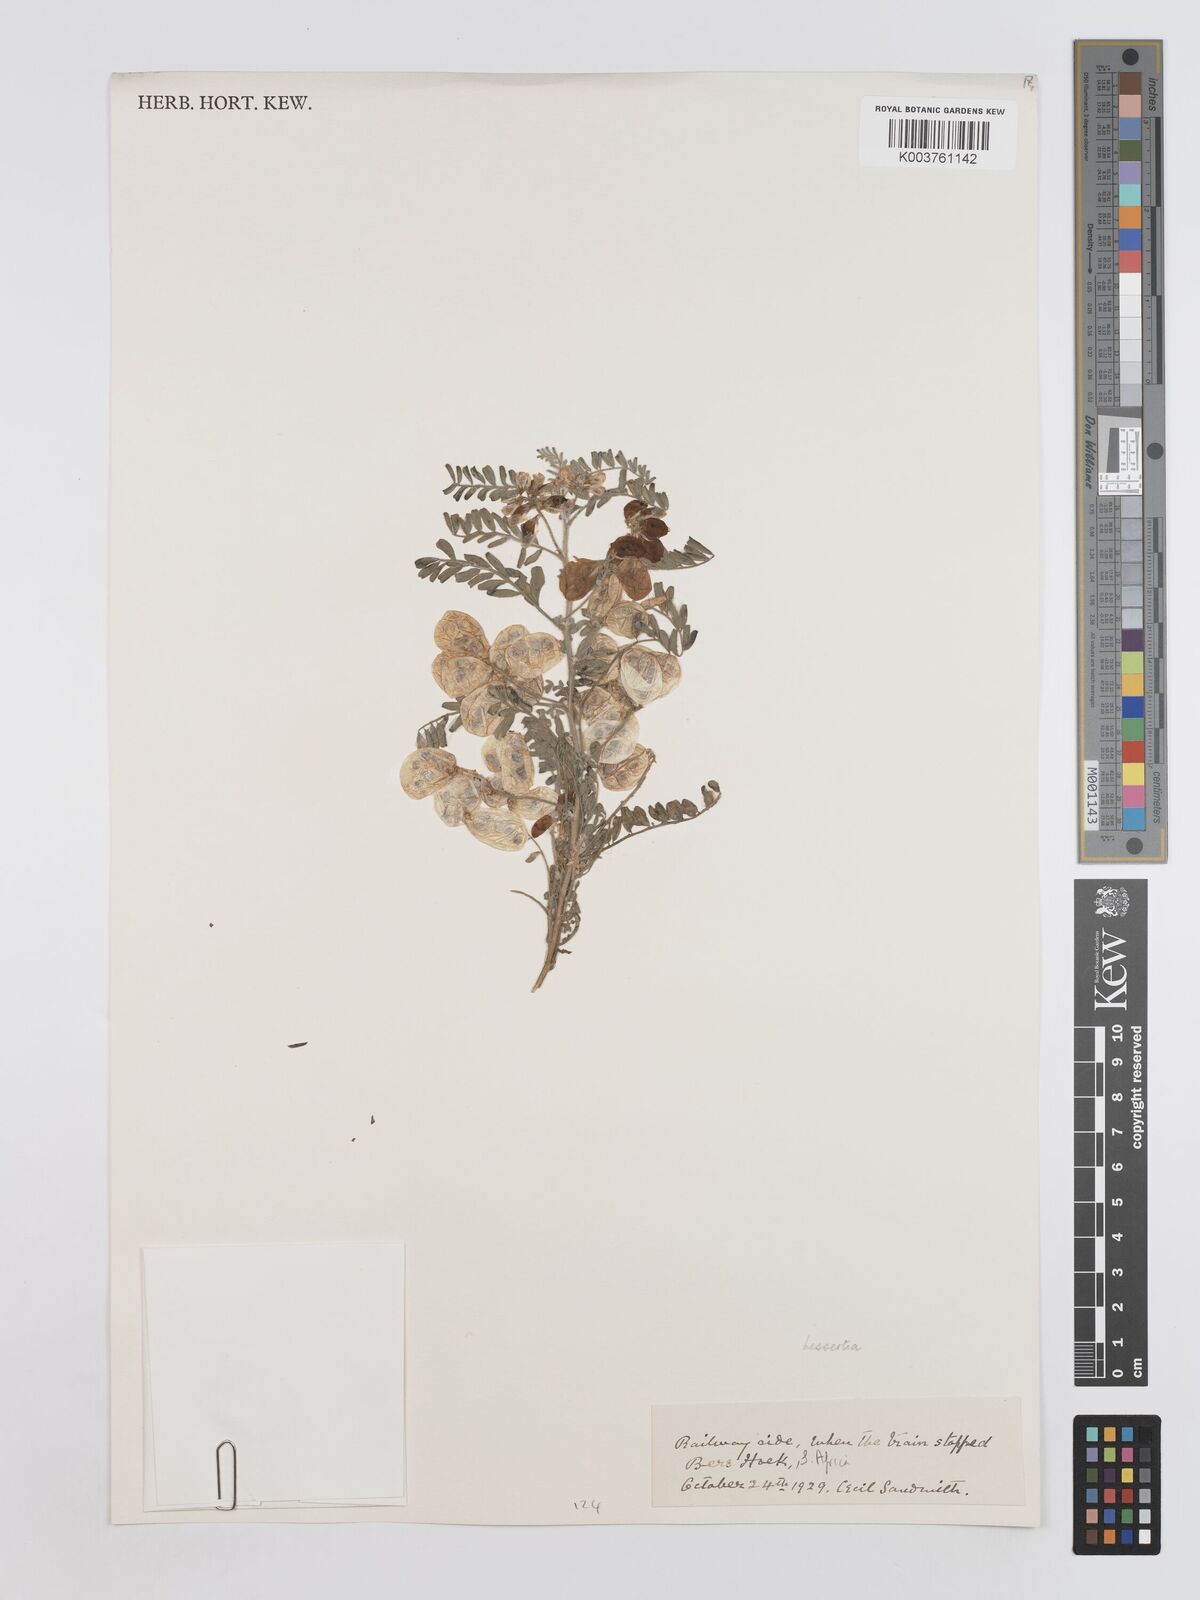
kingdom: Plantae
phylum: Tracheophyta
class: Magnoliopsida
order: Fabales
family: Fabaceae
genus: Lessertia
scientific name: Lessertia depressa
